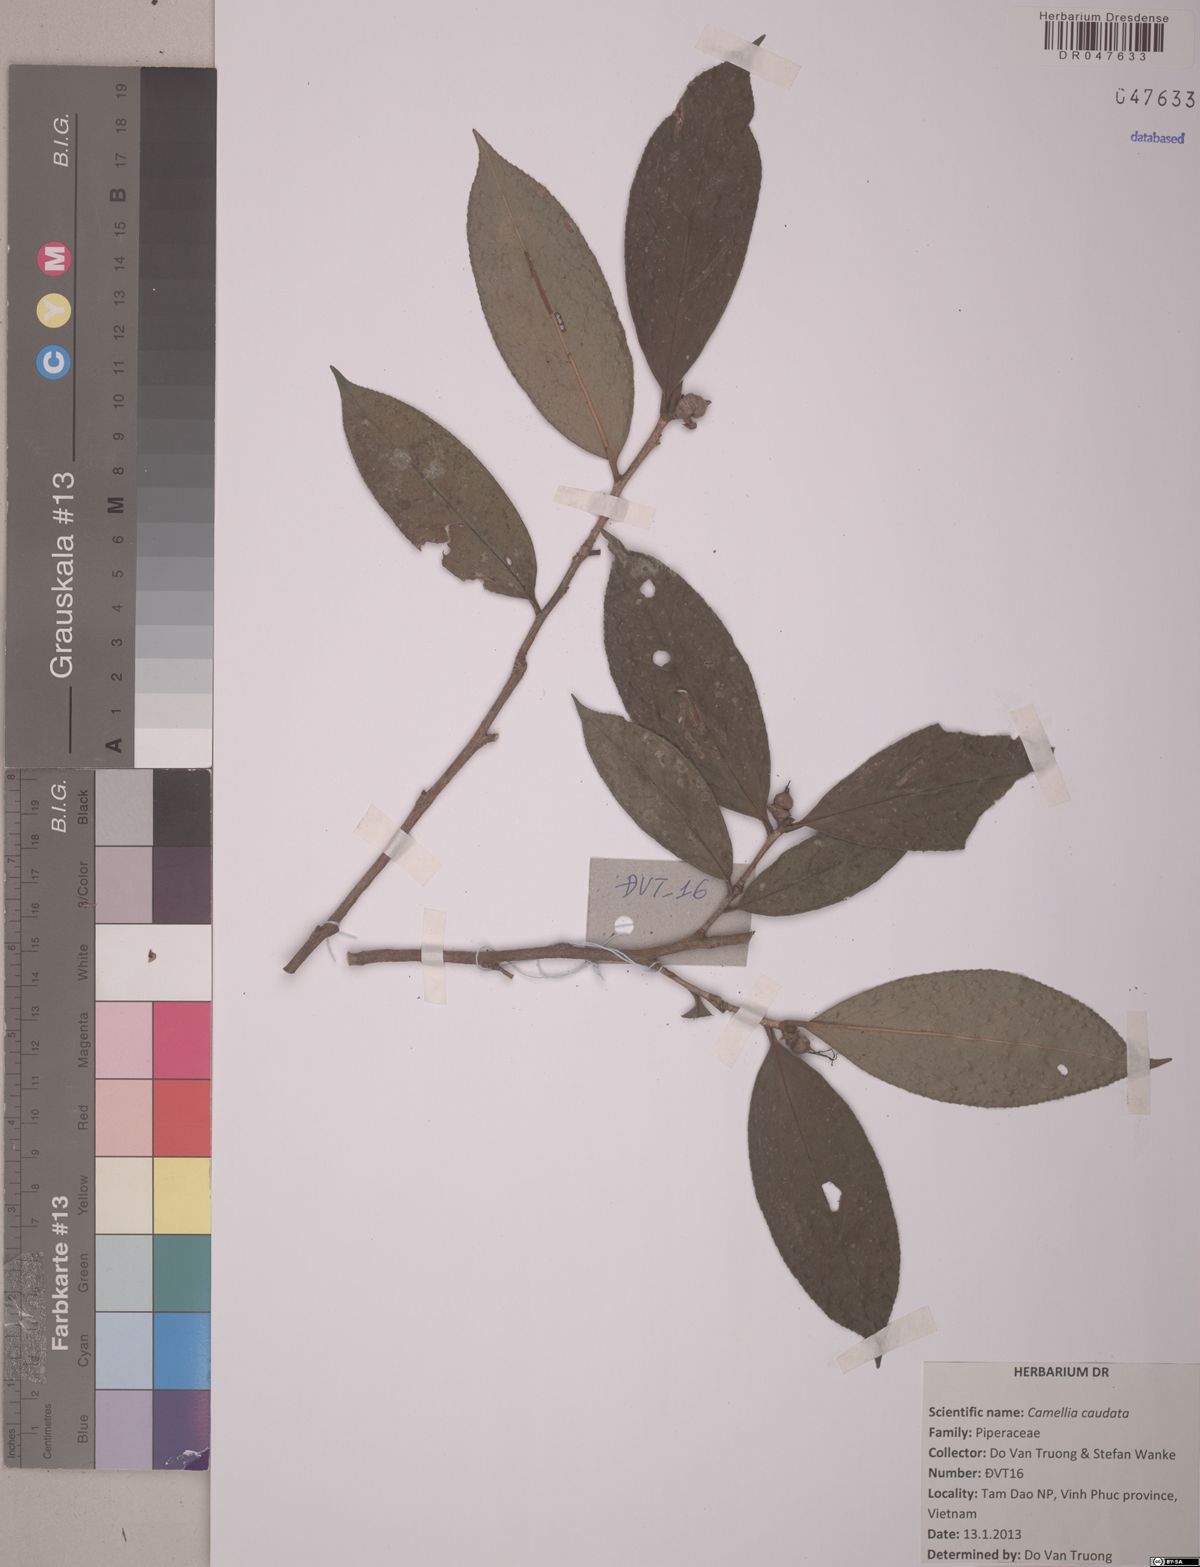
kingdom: Plantae
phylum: Tracheophyta
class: Magnoliopsida
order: Ericales
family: Theaceae
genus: Camellia
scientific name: Camellia caudata
